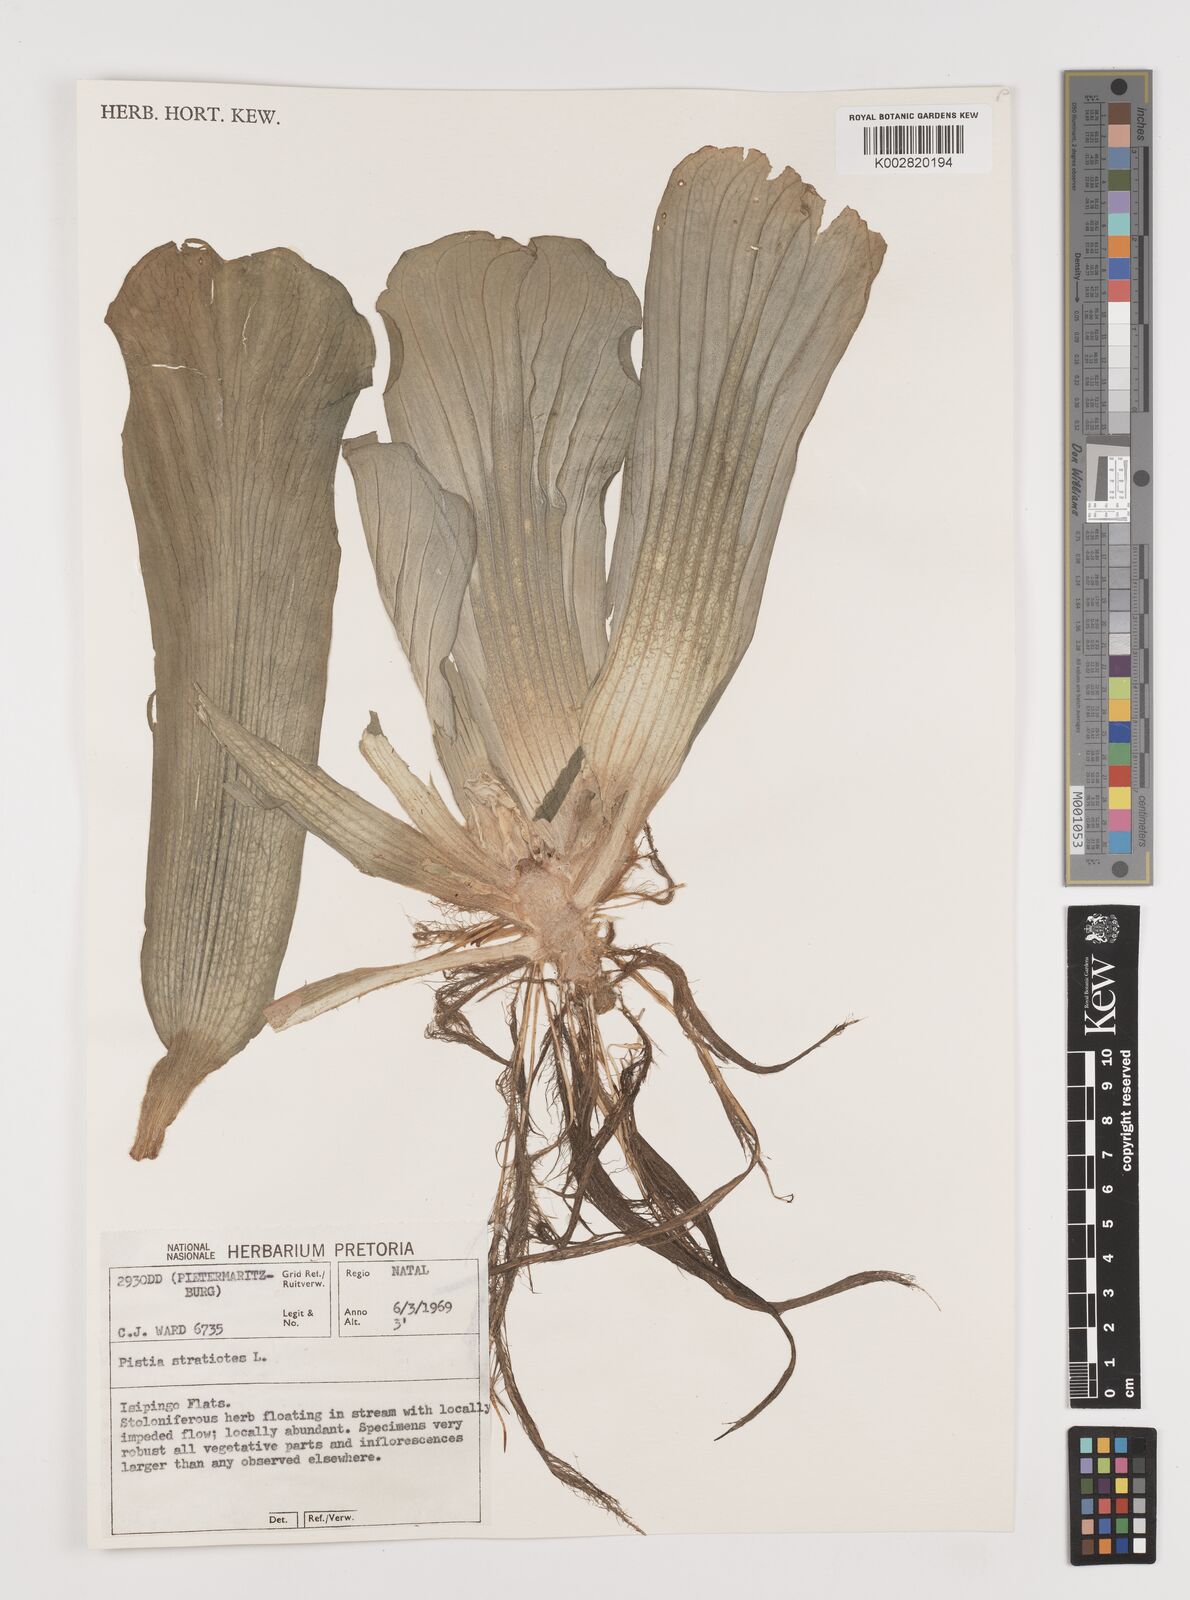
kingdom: Plantae
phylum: Tracheophyta
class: Liliopsida
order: Alismatales
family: Araceae
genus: Pistia
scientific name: Pistia stratiotes
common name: Water lettuce
